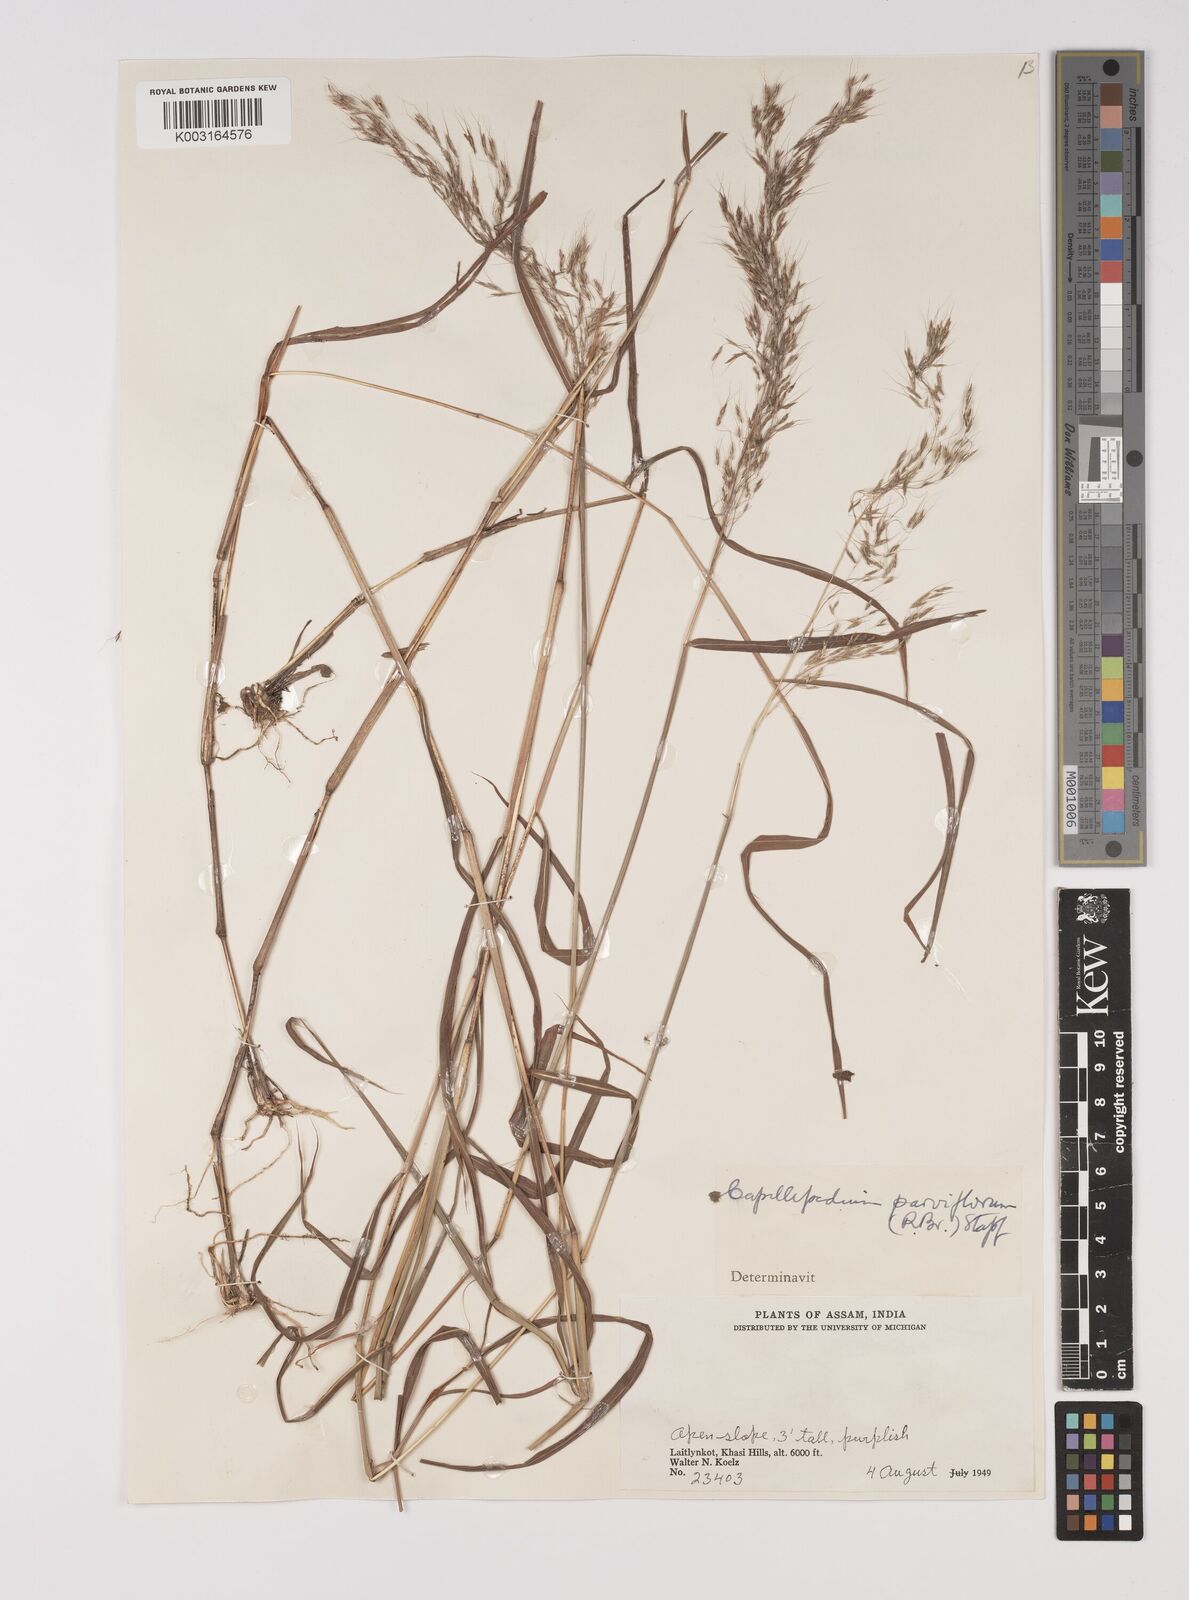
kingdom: Plantae
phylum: Tracheophyta
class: Liliopsida
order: Poales
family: Poaceae
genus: Capillipedium
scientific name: Capillipedium spicigerum
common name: Scented-top grass
